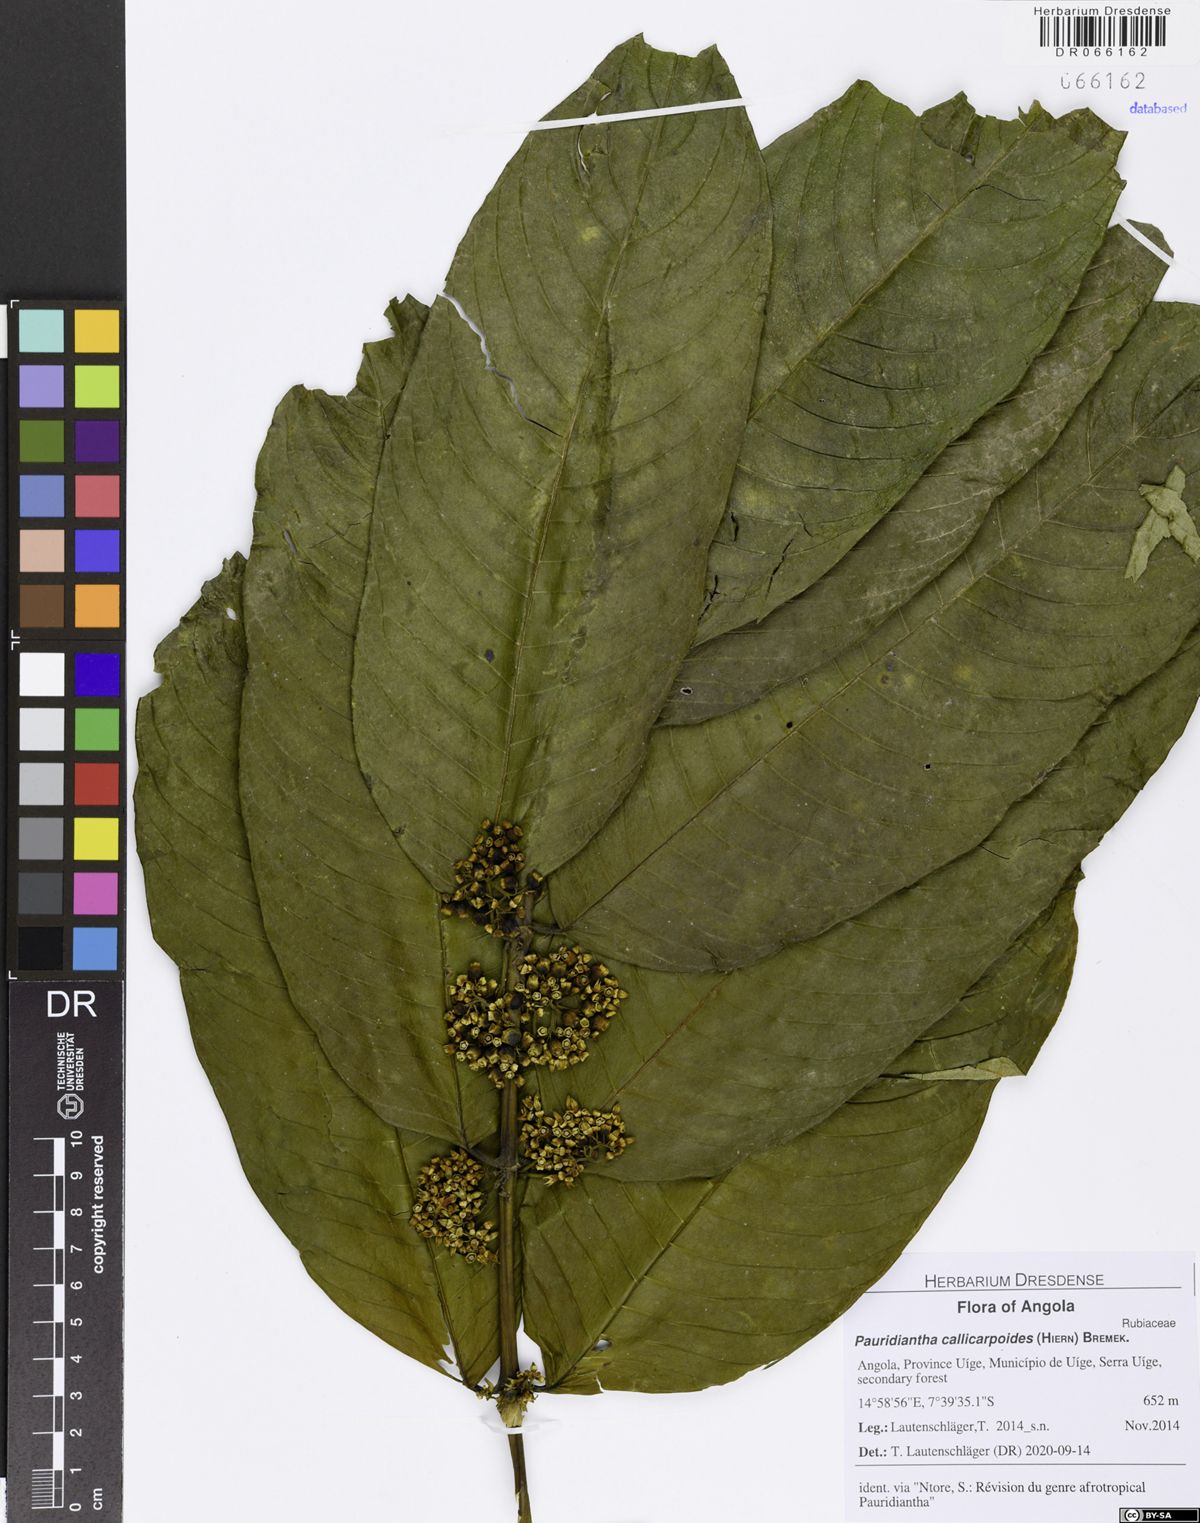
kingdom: Plantae
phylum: Tracheophyta
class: Magnoliopsida
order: Gentianales
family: Rubiaceae
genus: Pauridiantha
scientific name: Pauridiantha callicarpoides
